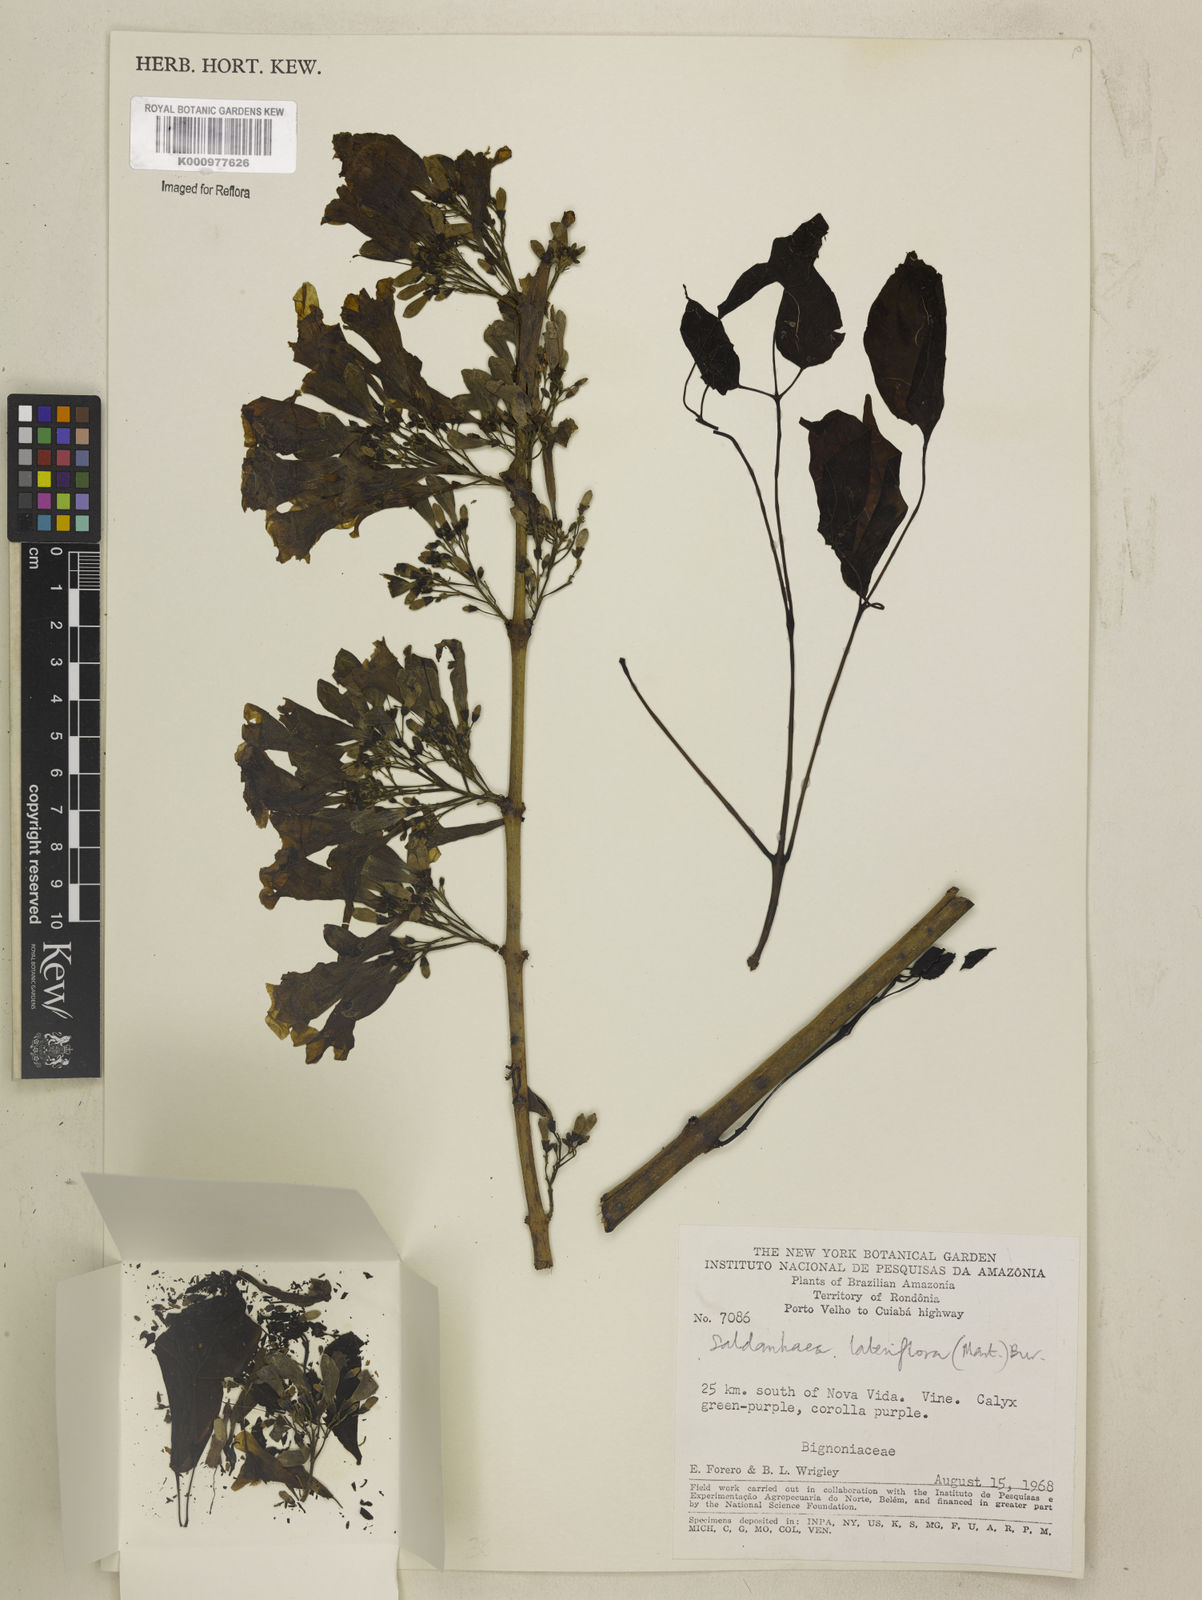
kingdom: Plantae
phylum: Tracheophyta
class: Magnoliopsida
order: Lamiales
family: Bignoniaceae
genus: Cuspidaria
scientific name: Cuspidaria lateriflora
